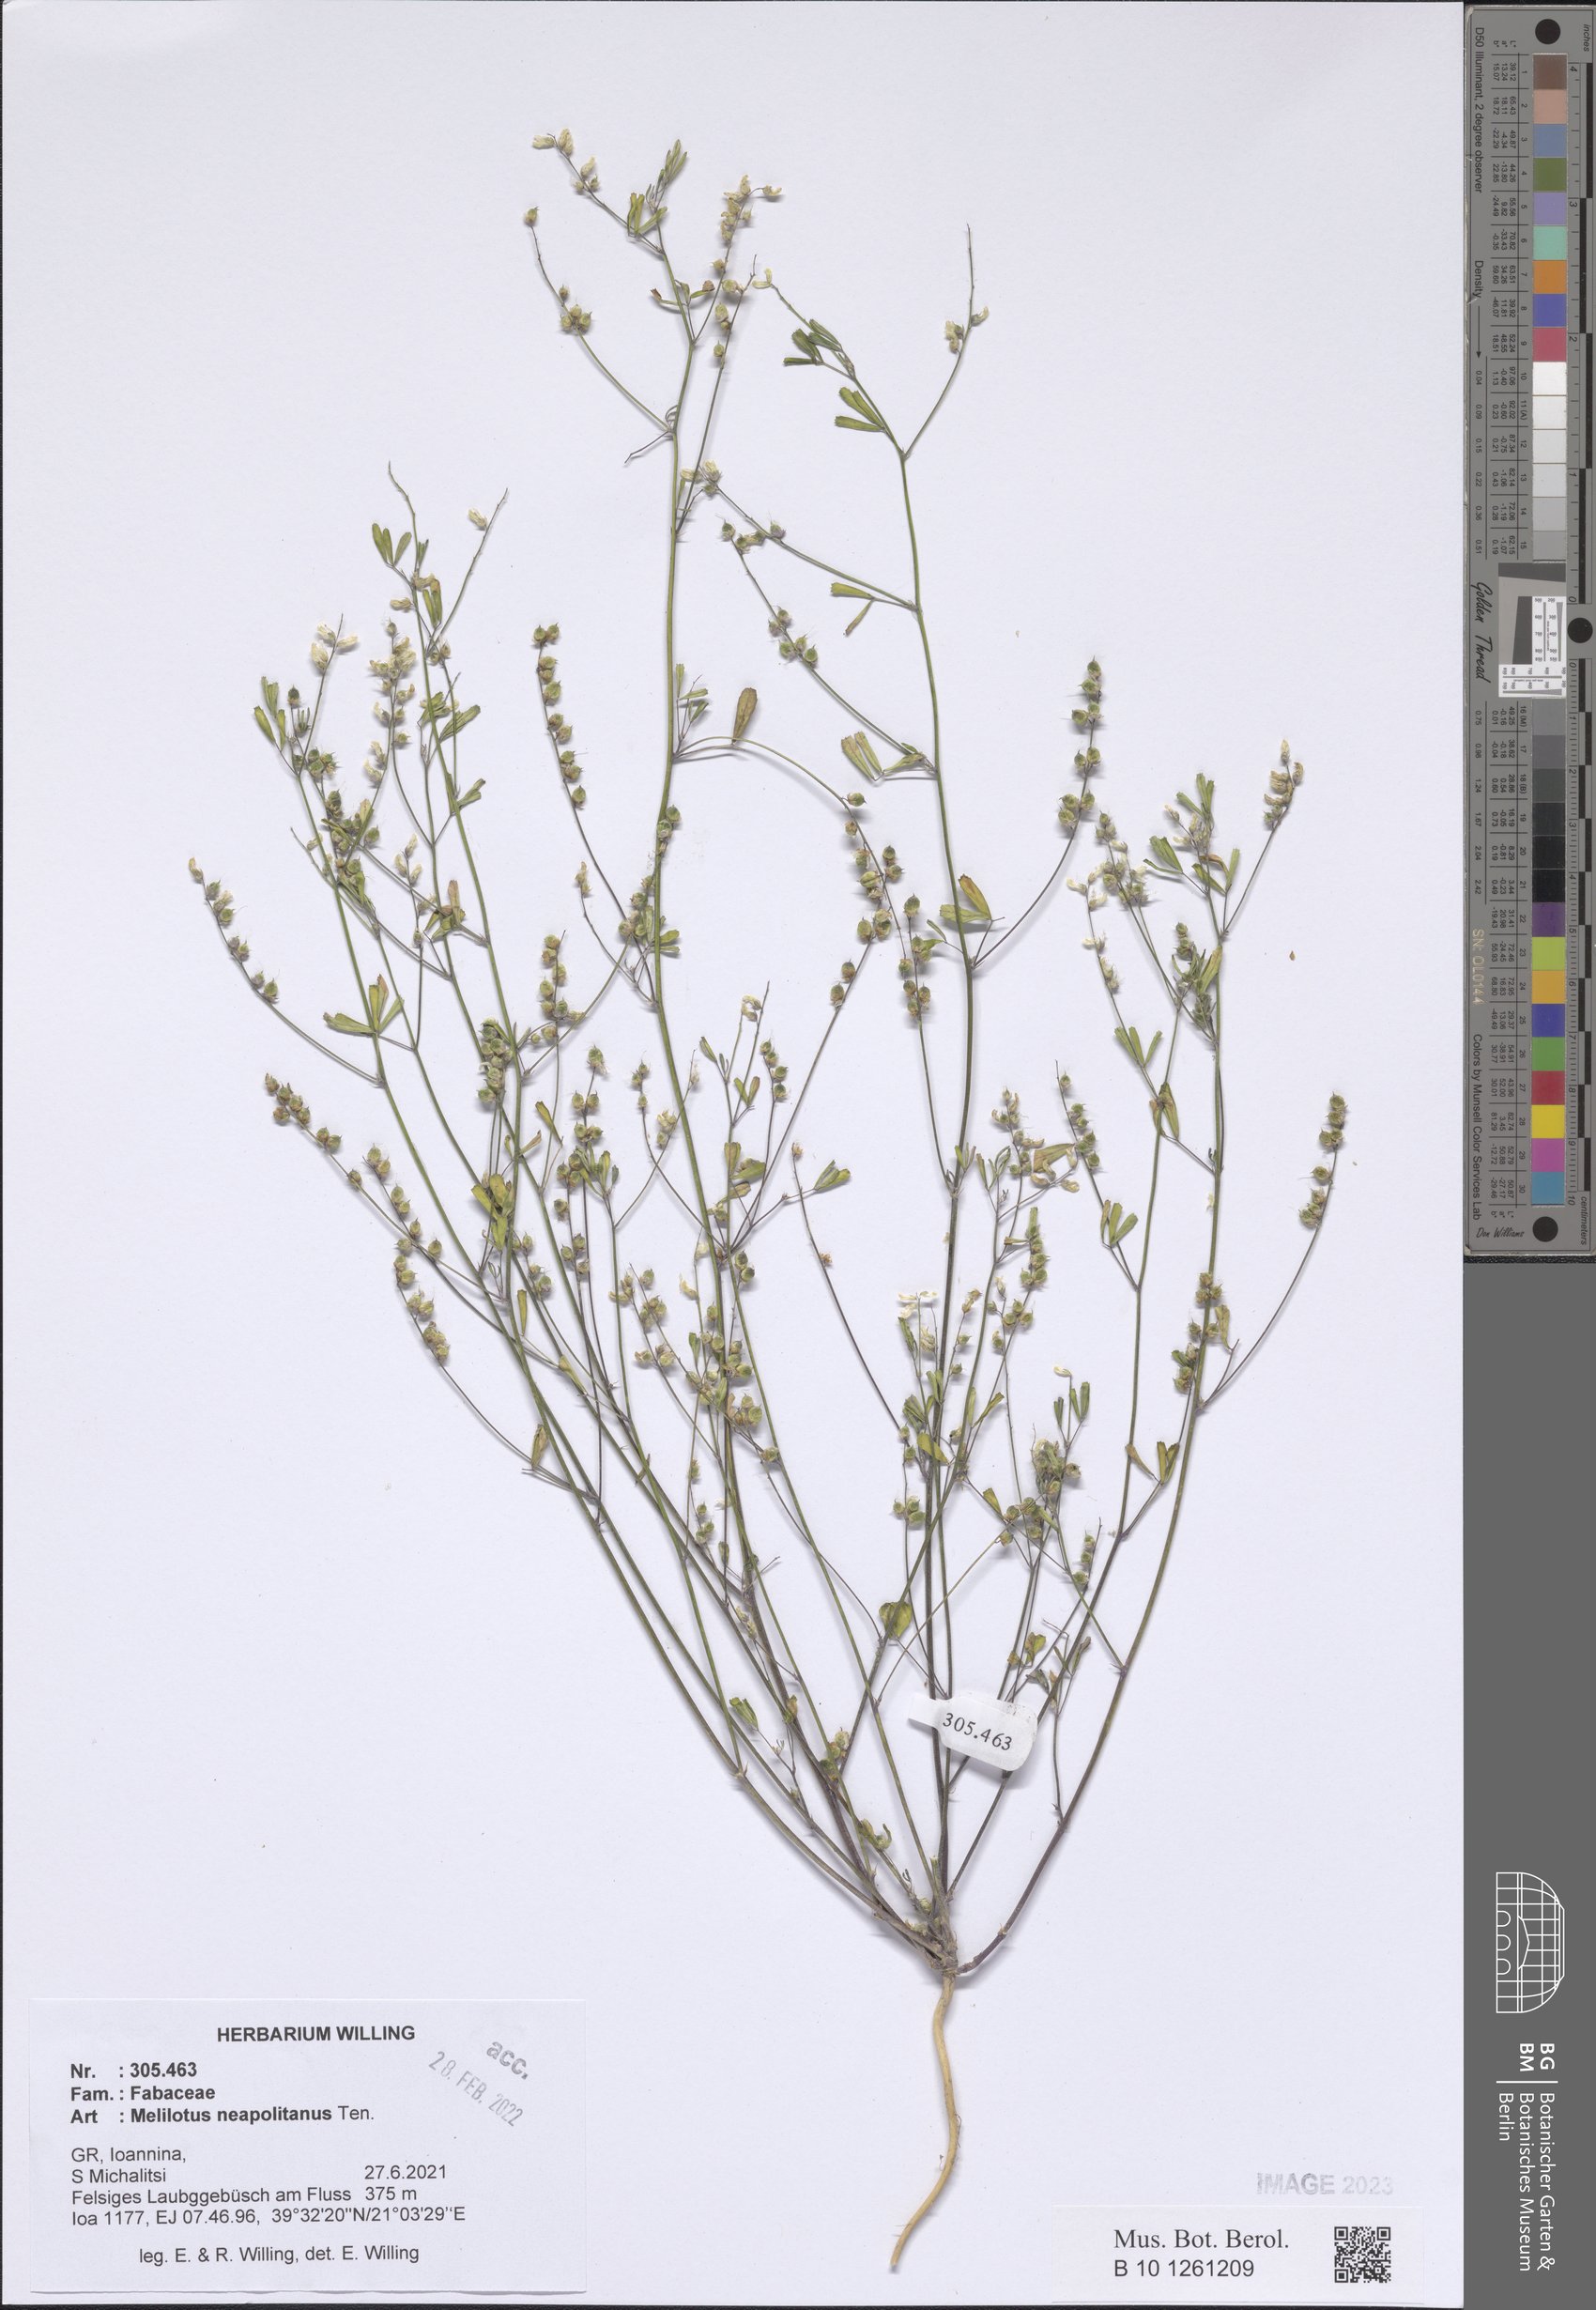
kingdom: Plantae
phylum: Tracheophyta
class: Magnoliopsida
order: Fabales
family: Fabaceae
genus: Melilotus
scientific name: Melilotus neapolitanus
